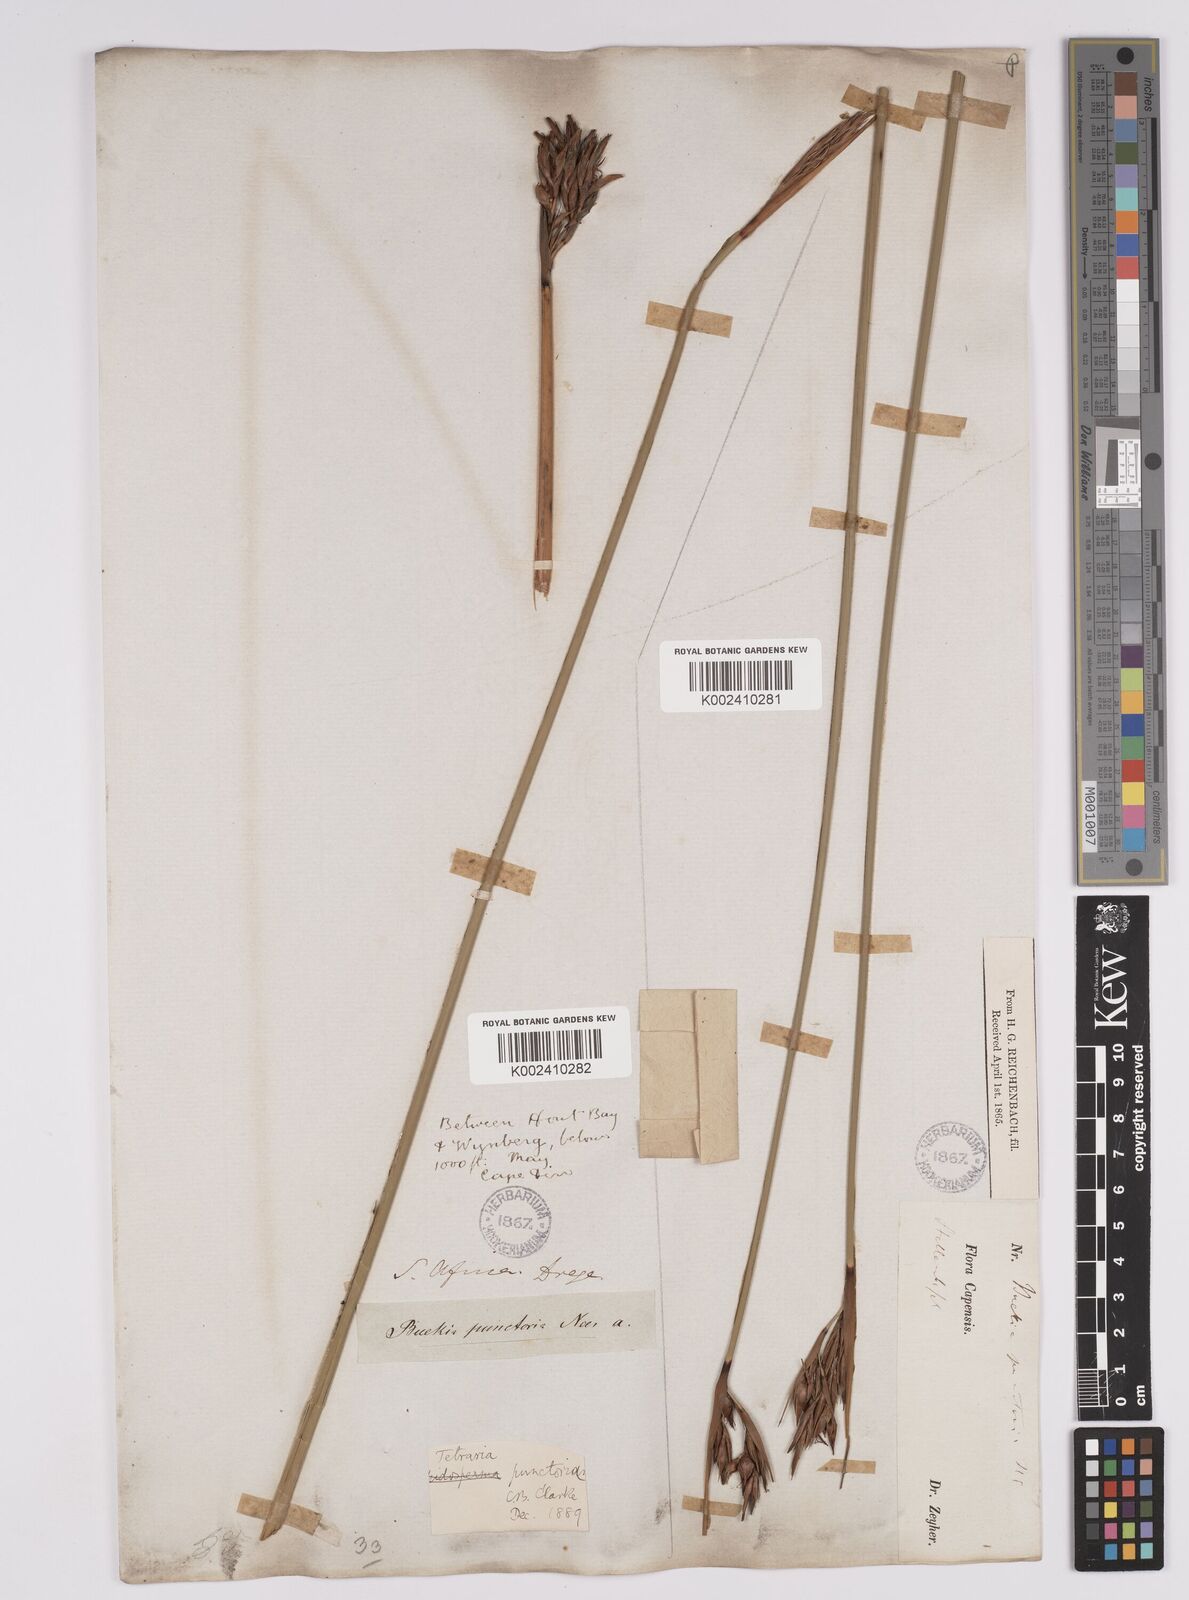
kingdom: Plantae
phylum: Tracheophyta
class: Liliopsida
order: Poales
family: Cyperaceae
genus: Neesenbeckia
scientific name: Neesenbeckia punctoria
